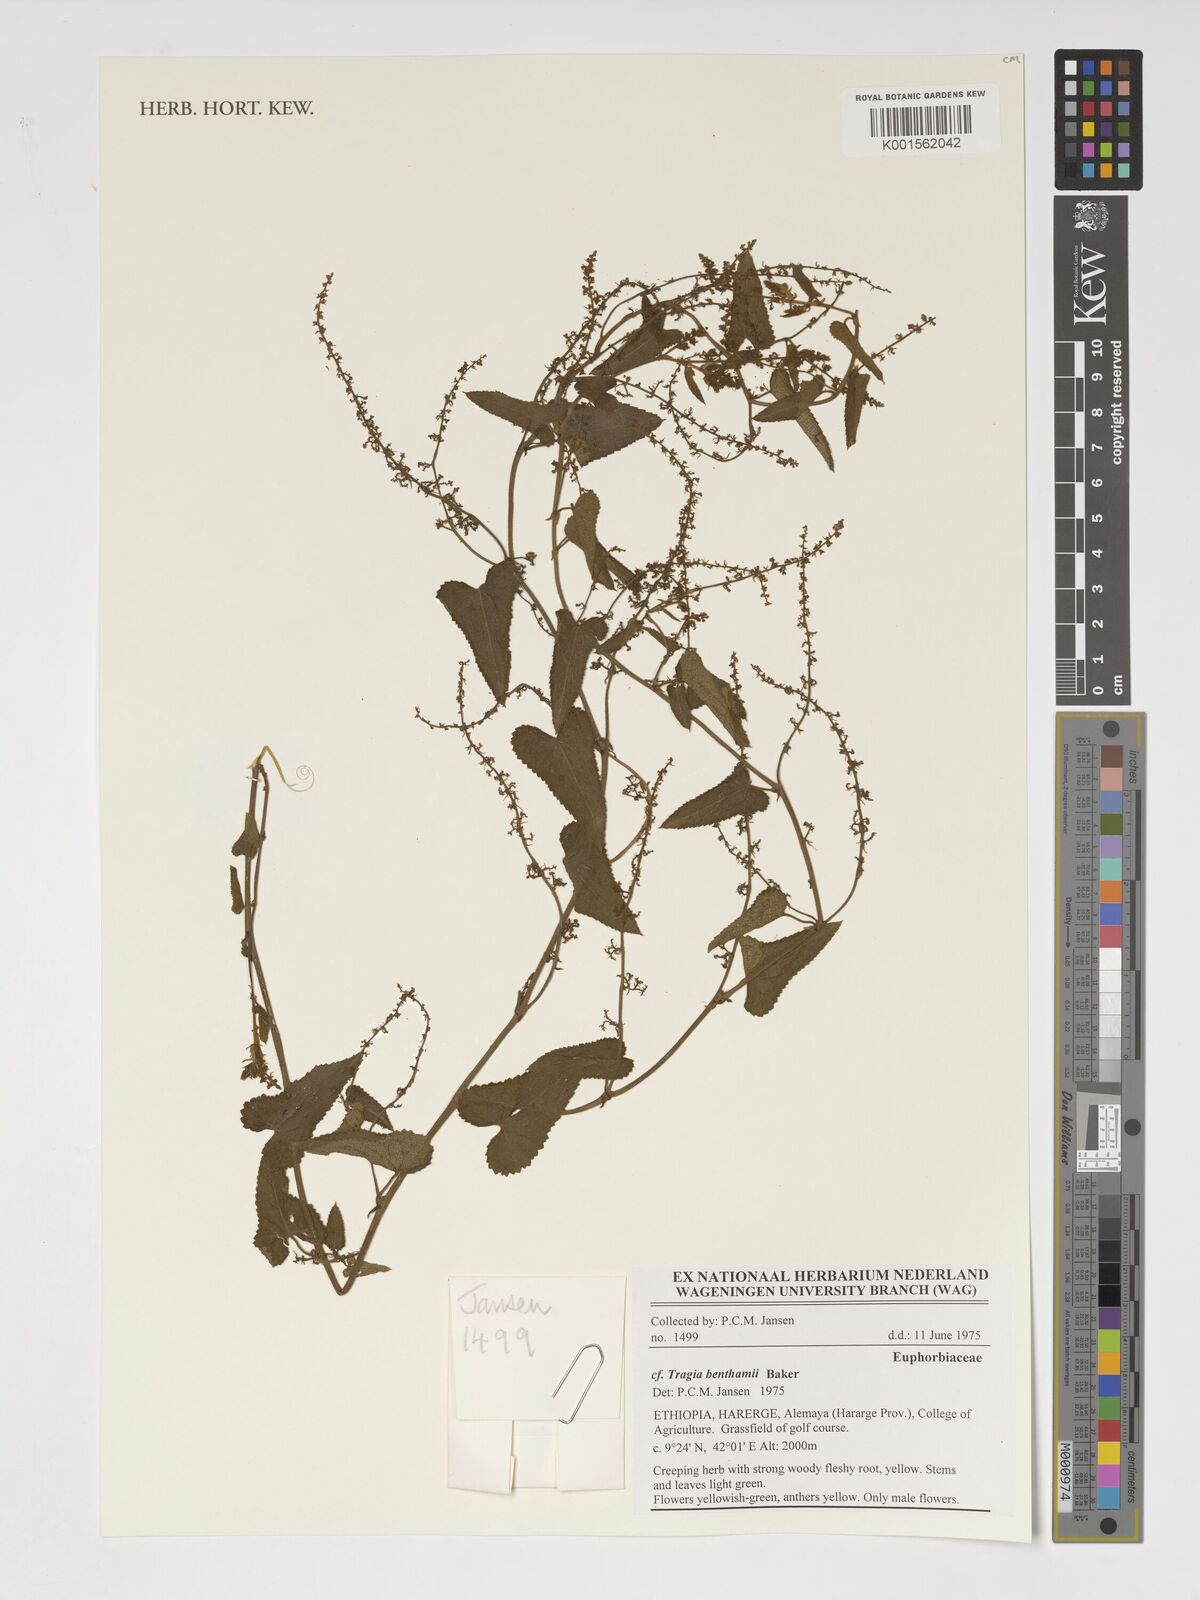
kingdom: Plantae
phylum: Tracheophyta
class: Magnoliopsida
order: Malpighiales
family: Euphorbiaceae
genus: Tragia
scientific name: Tragia benthamii
